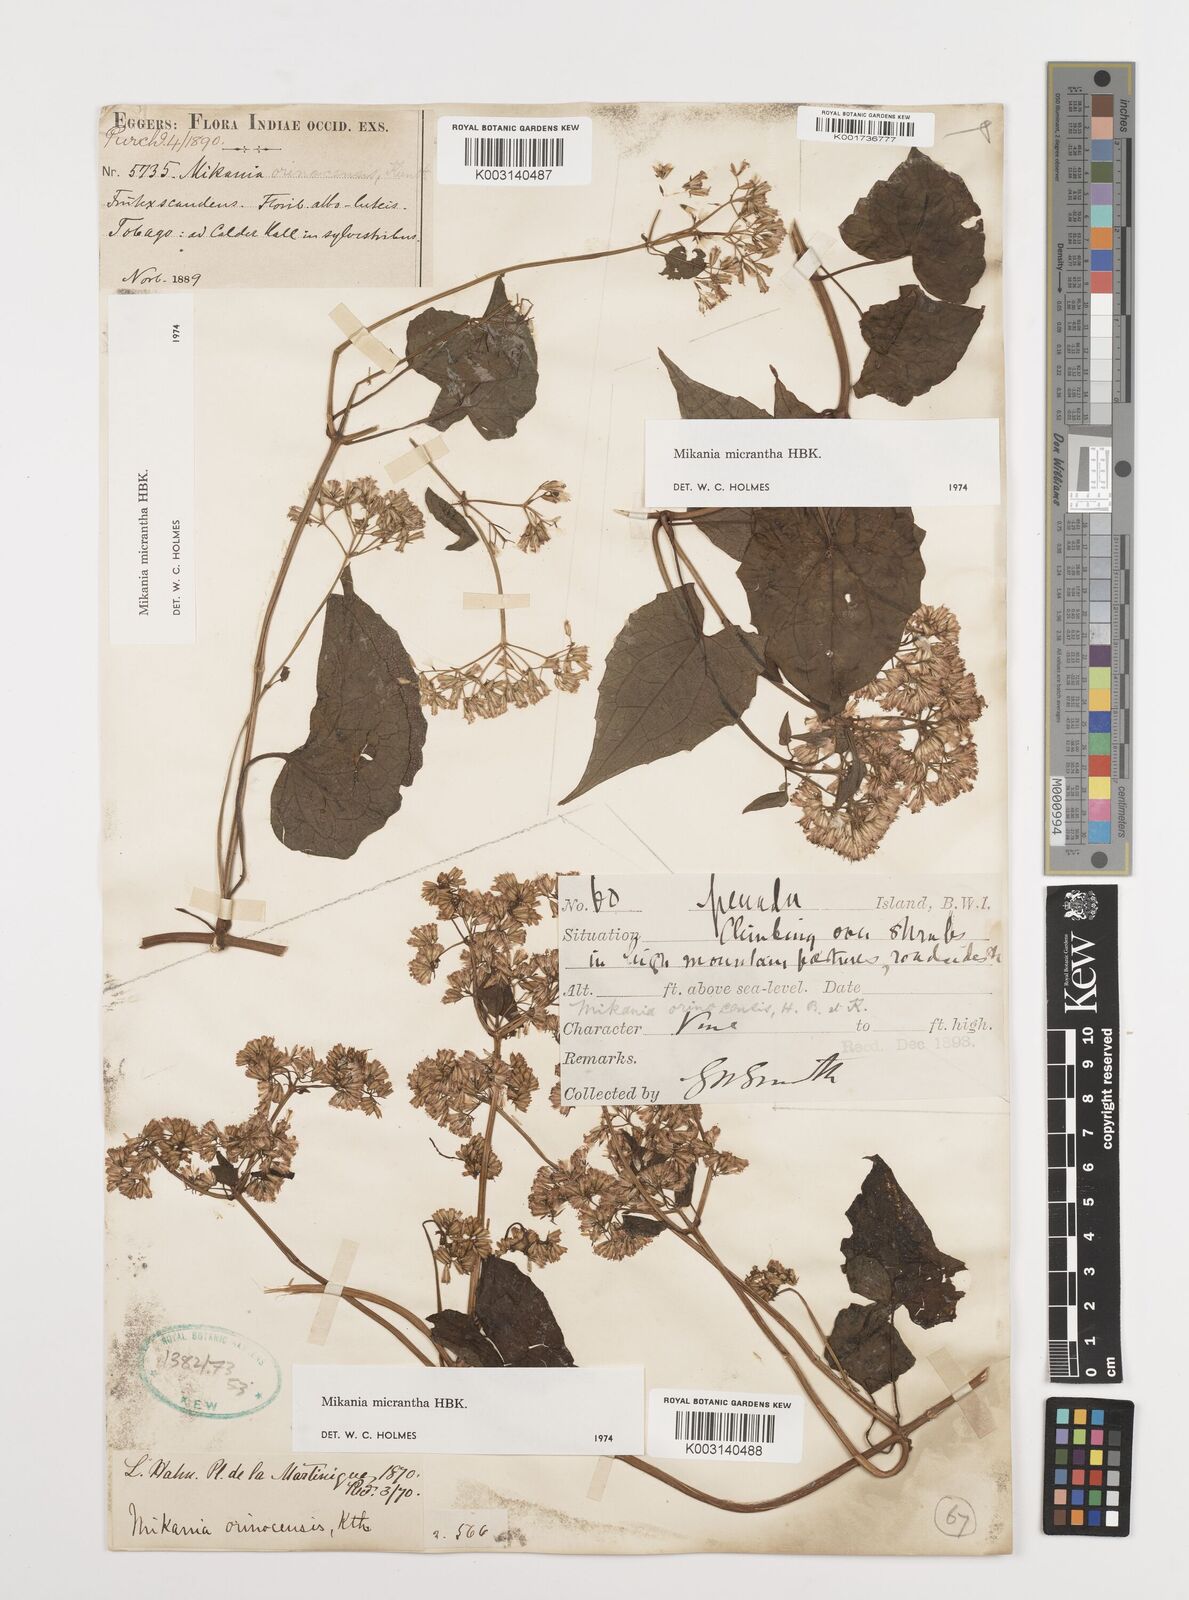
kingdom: Plantae
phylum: Tracheophyta
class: Magnoliopsida
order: Asterales
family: Asteraceae
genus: Mikania
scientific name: Mikania micrantha
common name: Mile-a-minute
